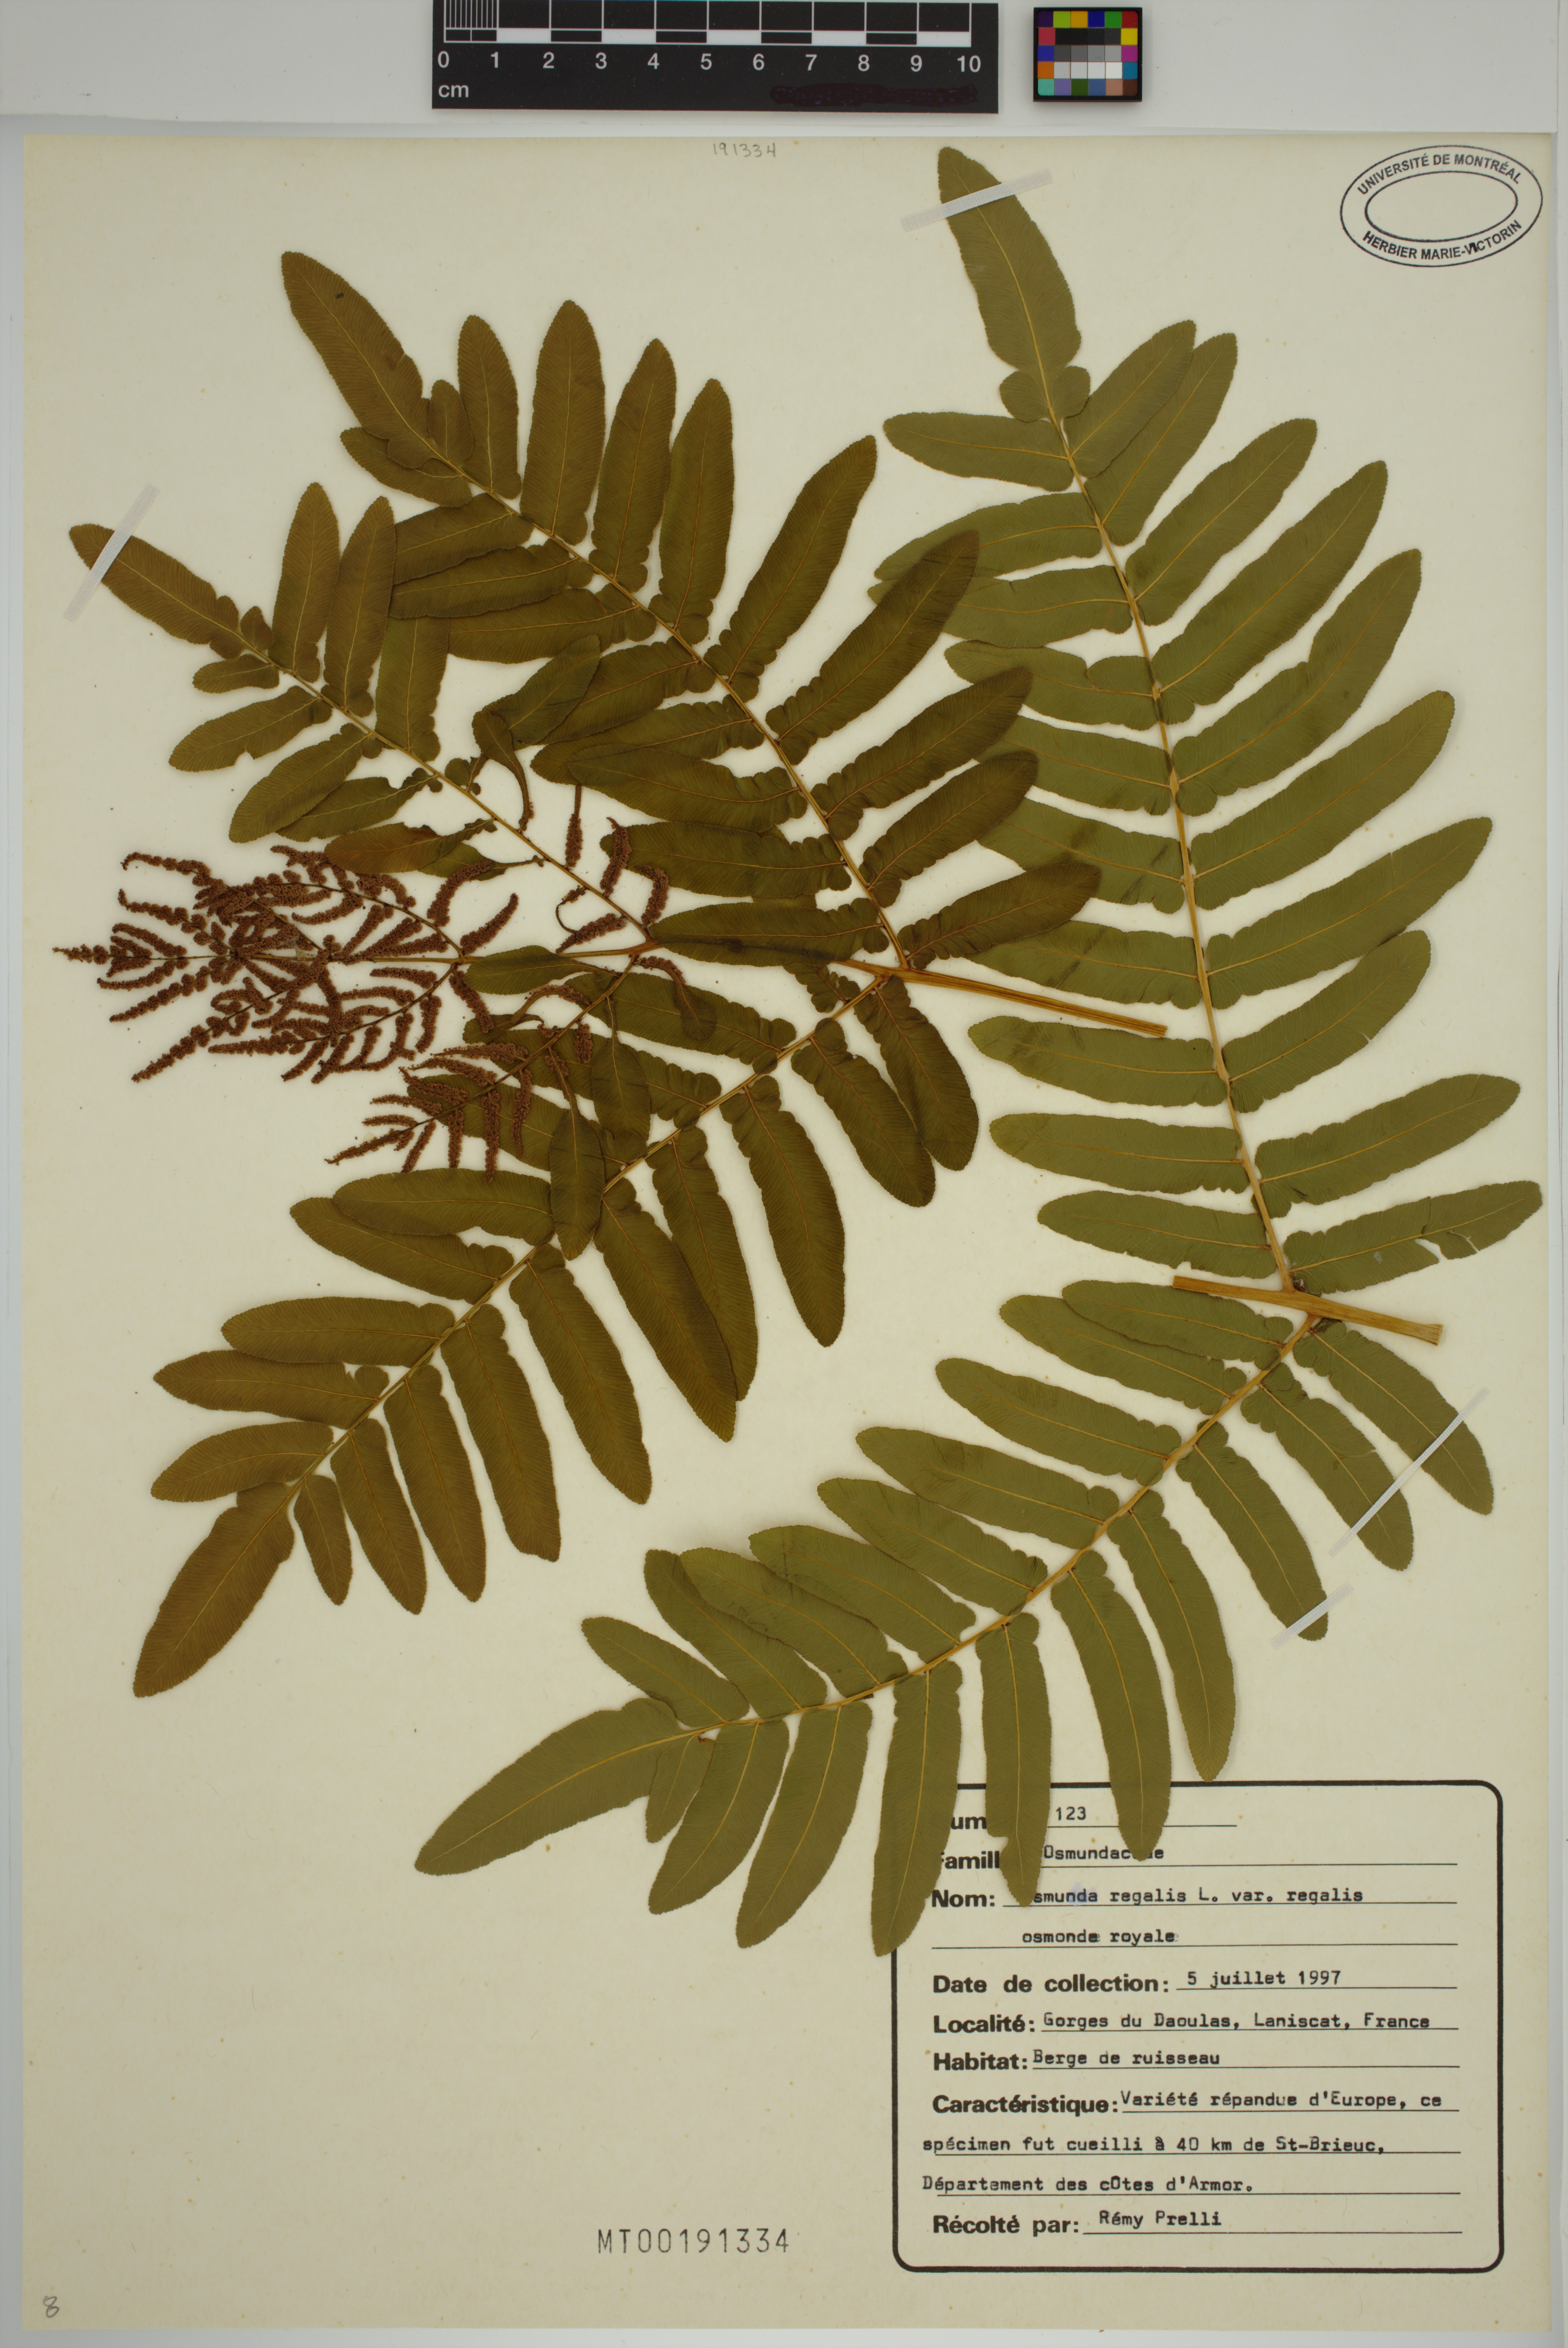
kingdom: Plantae
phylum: Tracheophyta
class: Polypodiopsida
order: Osmundales
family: Osmundaceae
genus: Osmunda
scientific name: Osmunda regalis
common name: Royal fern
